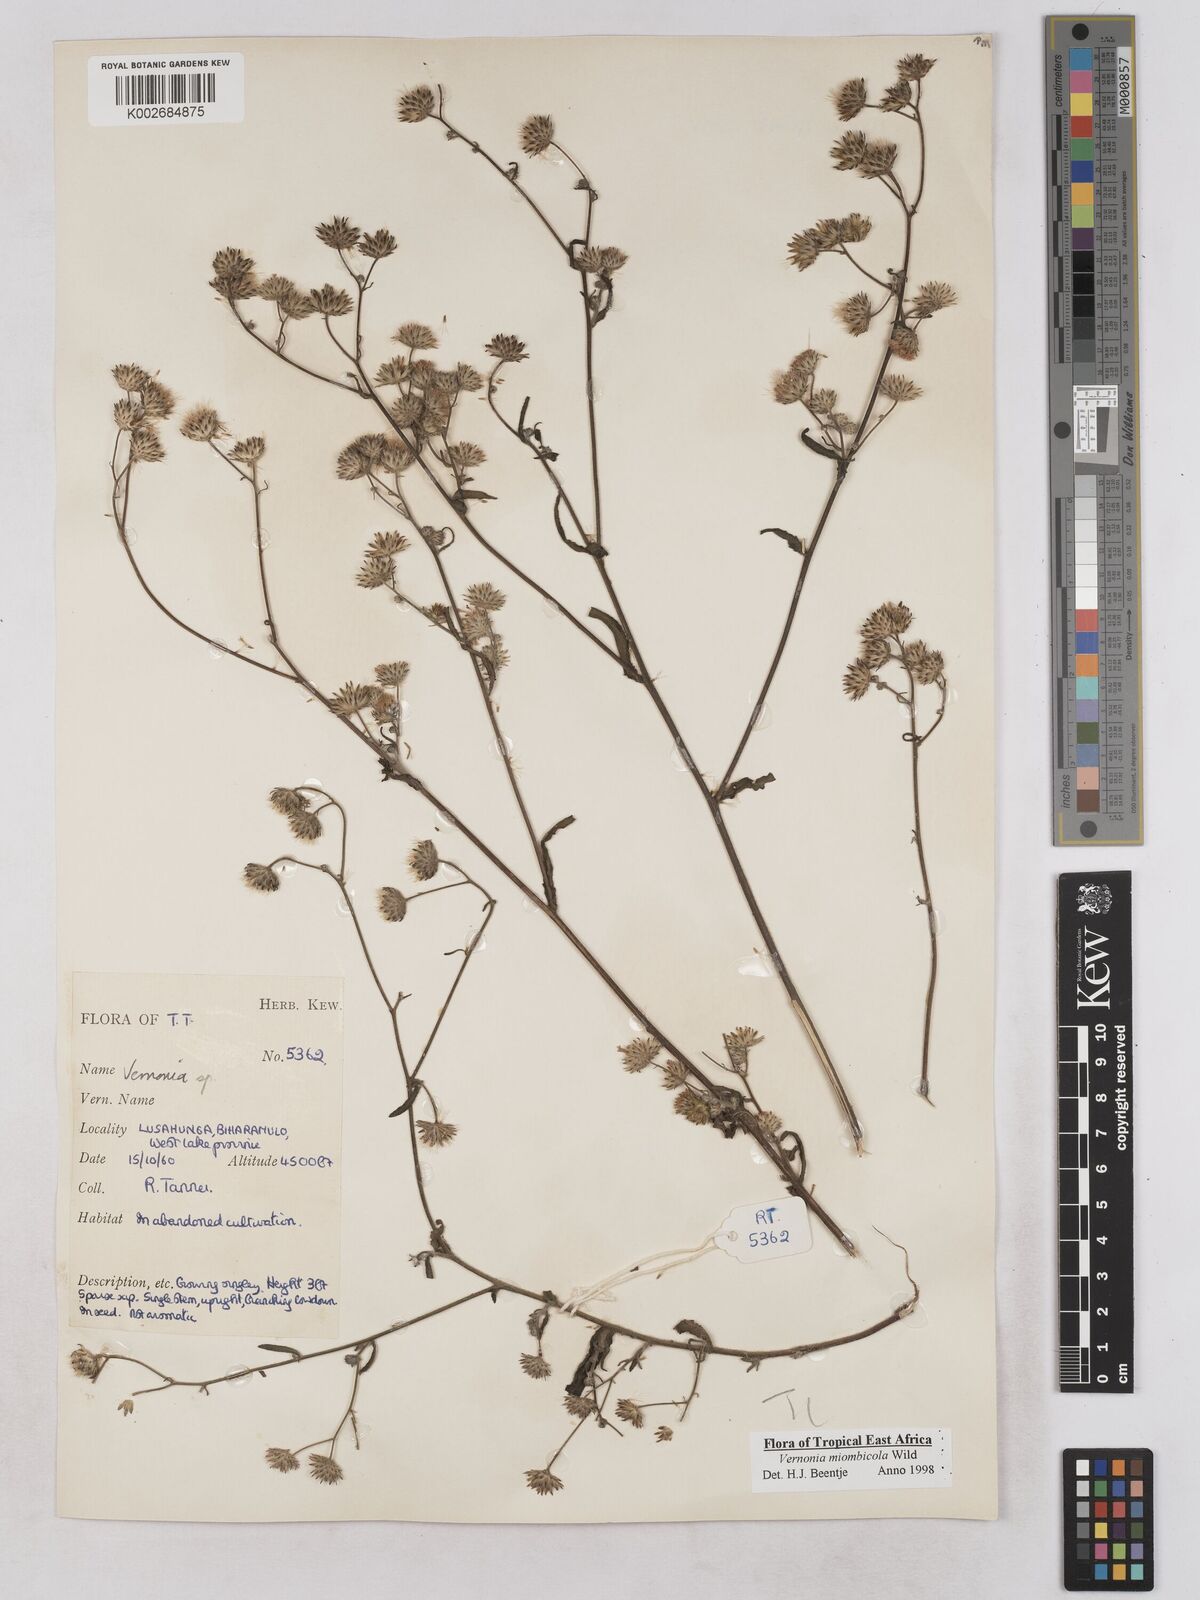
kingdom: Plantae
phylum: Tracheophyta
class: Magnoliopsida
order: Asterales
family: Asteraceae
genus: Vernonia
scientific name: Vernonia miombicola
